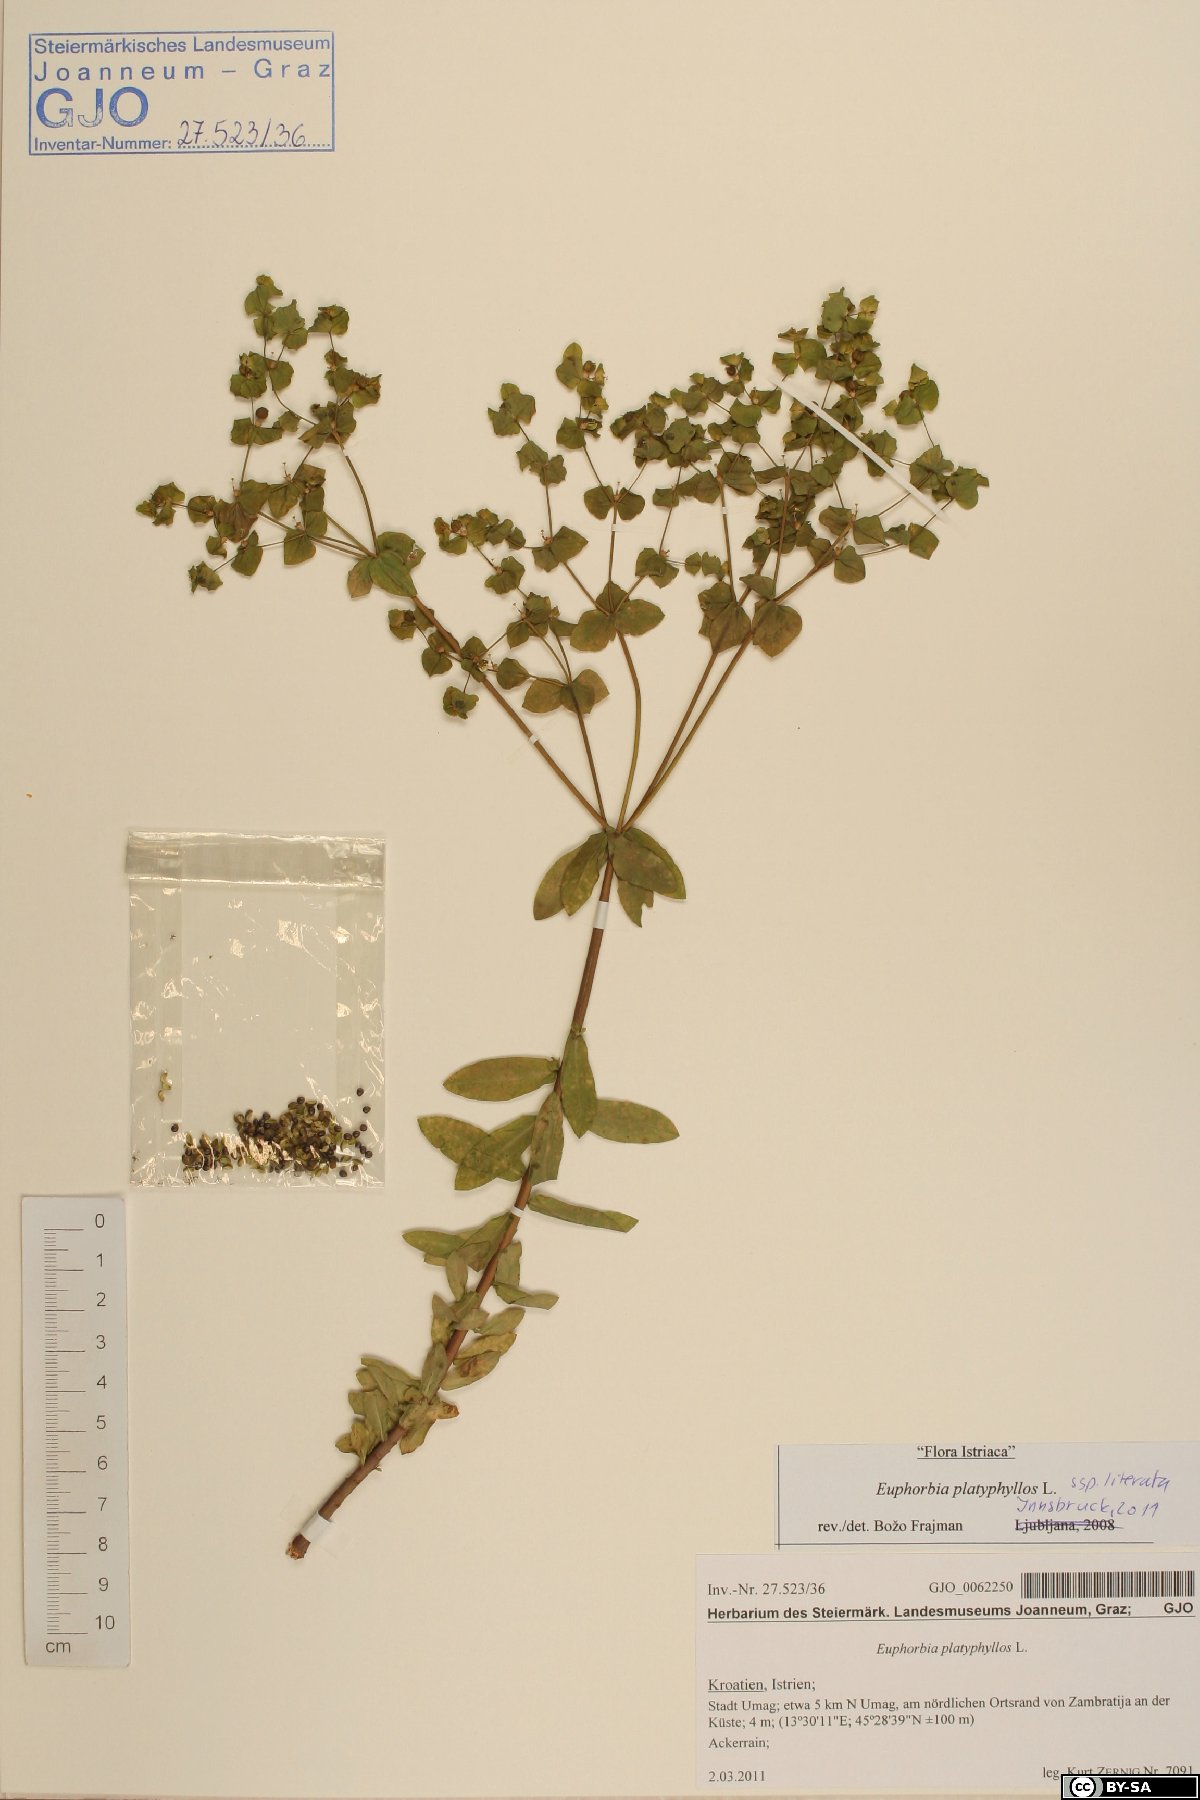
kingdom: Plantae
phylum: Tracheophyta
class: Magnoliopsida
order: Malpighiales
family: Euphorbiaceae
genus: Euphorbia
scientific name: Euphorbia platyphyllos
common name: Broad-leaved spurge
